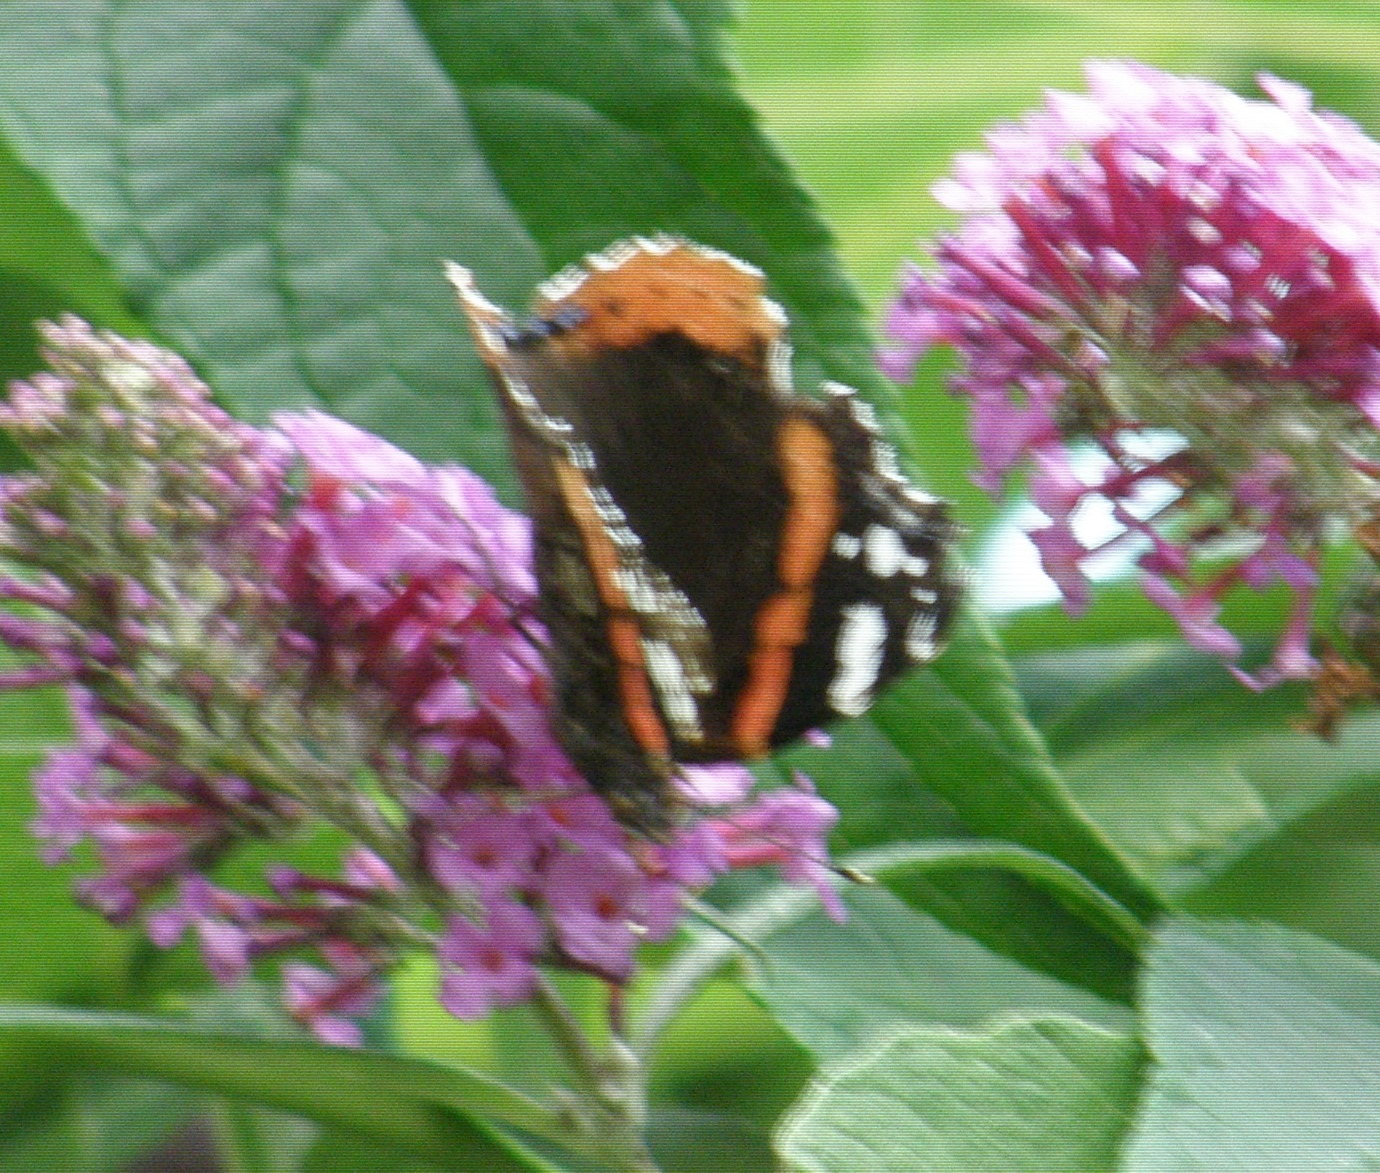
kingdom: Animalia
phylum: Arthropoda
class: Insecta
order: Lepidoptera
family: Nymphalidae
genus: Vanessa
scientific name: Vanessa atalanta
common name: Admiral
